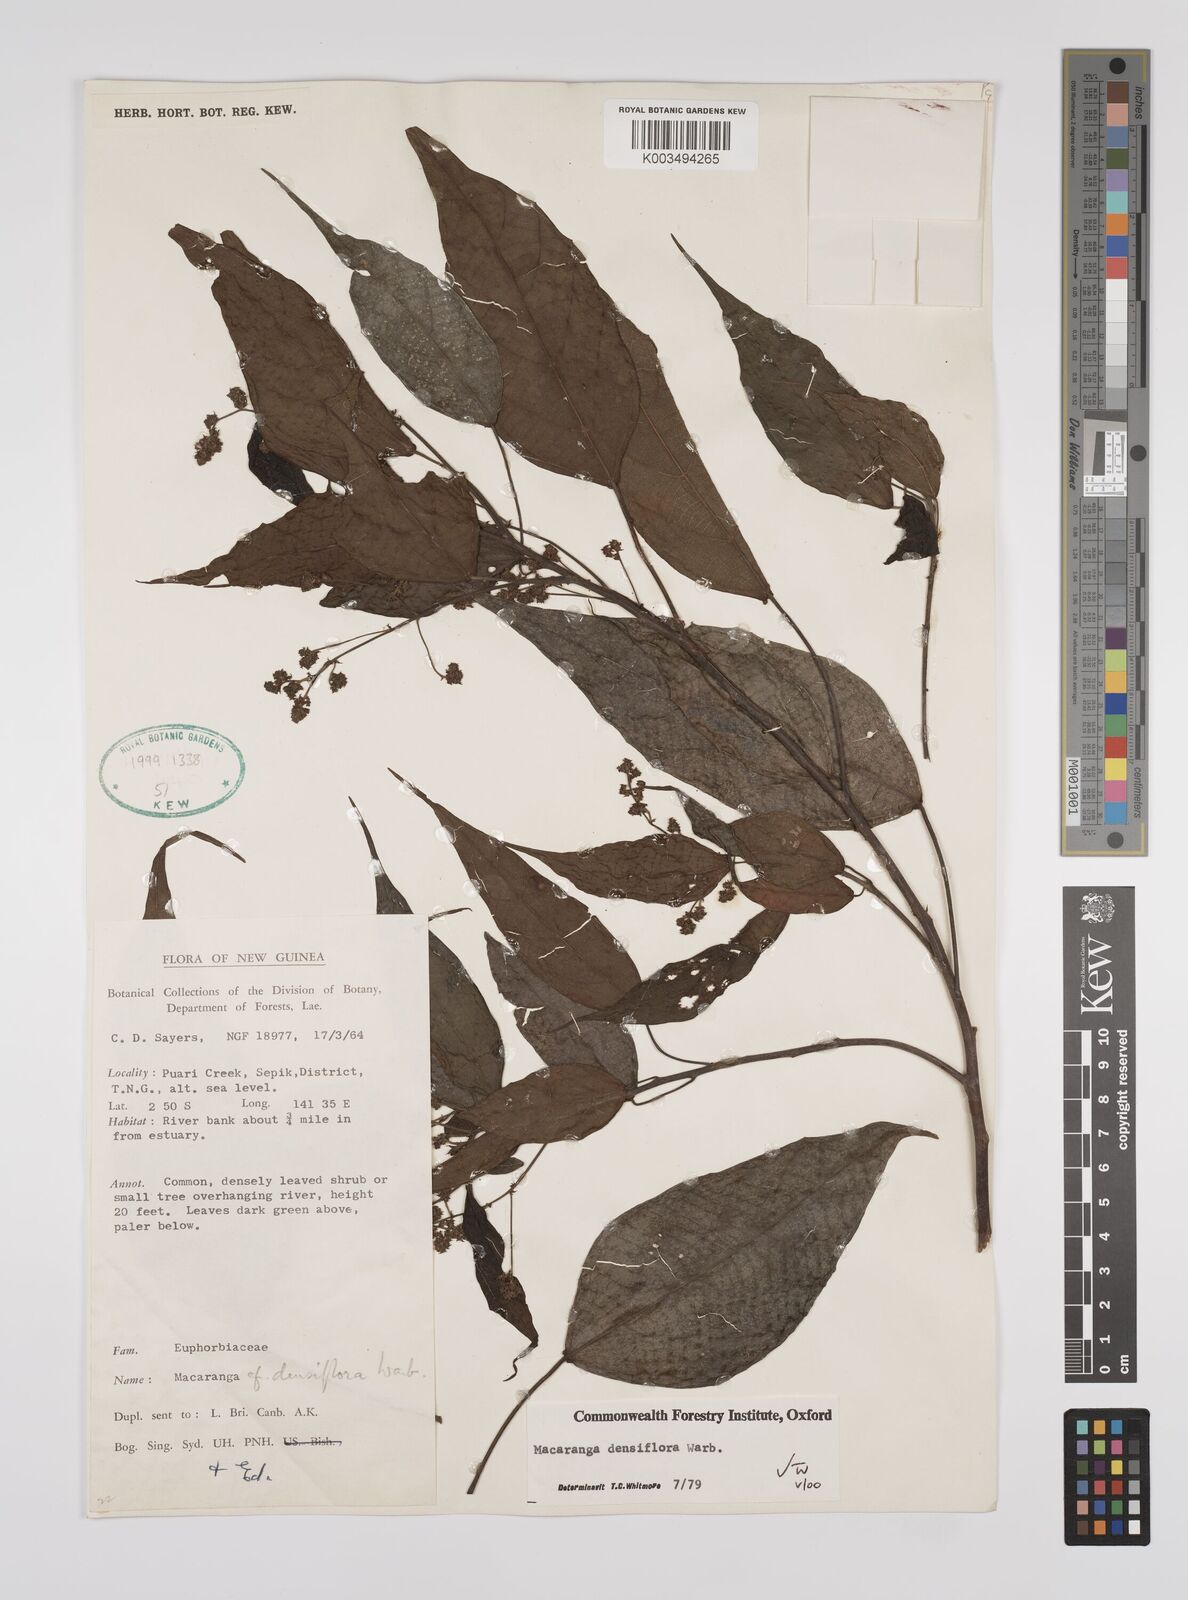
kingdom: Plantae
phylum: Tracheophyta
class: Magnoliopsida
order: Malpighiales
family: Euphorbiaceae
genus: Macaranga
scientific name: Macaranga densiflora
